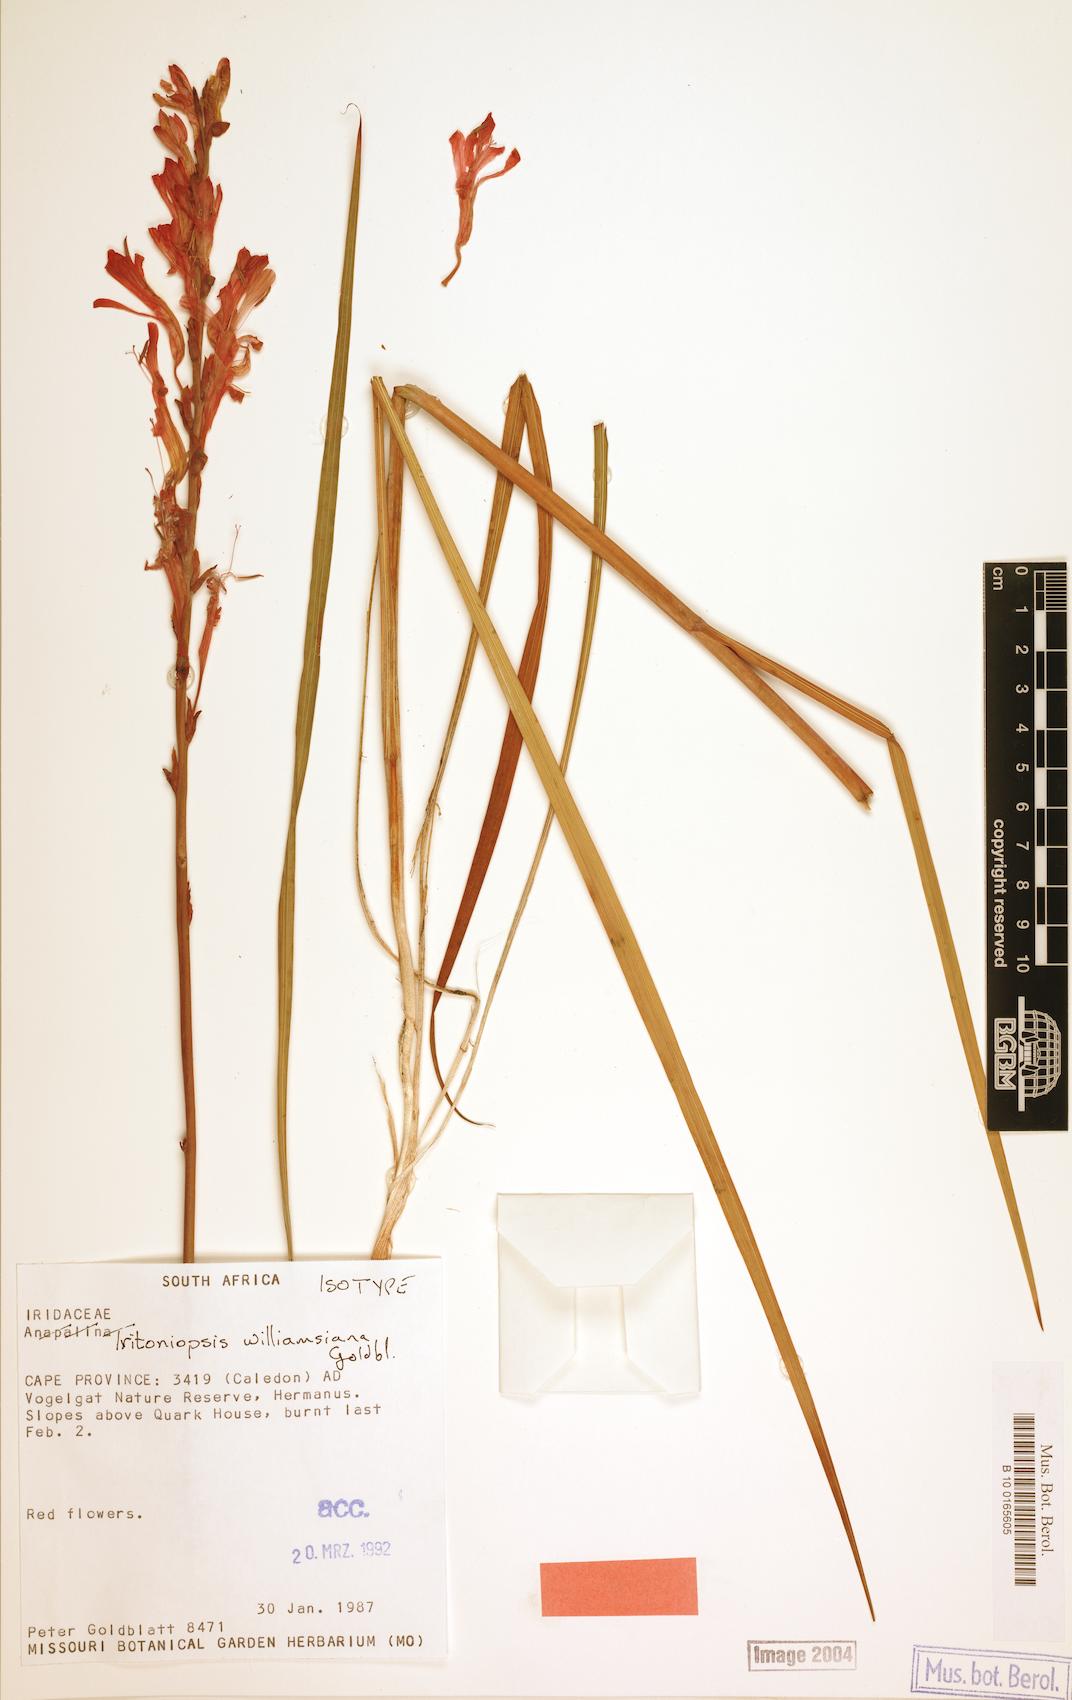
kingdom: Plantae
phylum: Tracheophyta
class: Liliopsida
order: Asparagales
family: Iridaceae
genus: Tritoniopsis
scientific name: Tritoniopsis williamsiana
